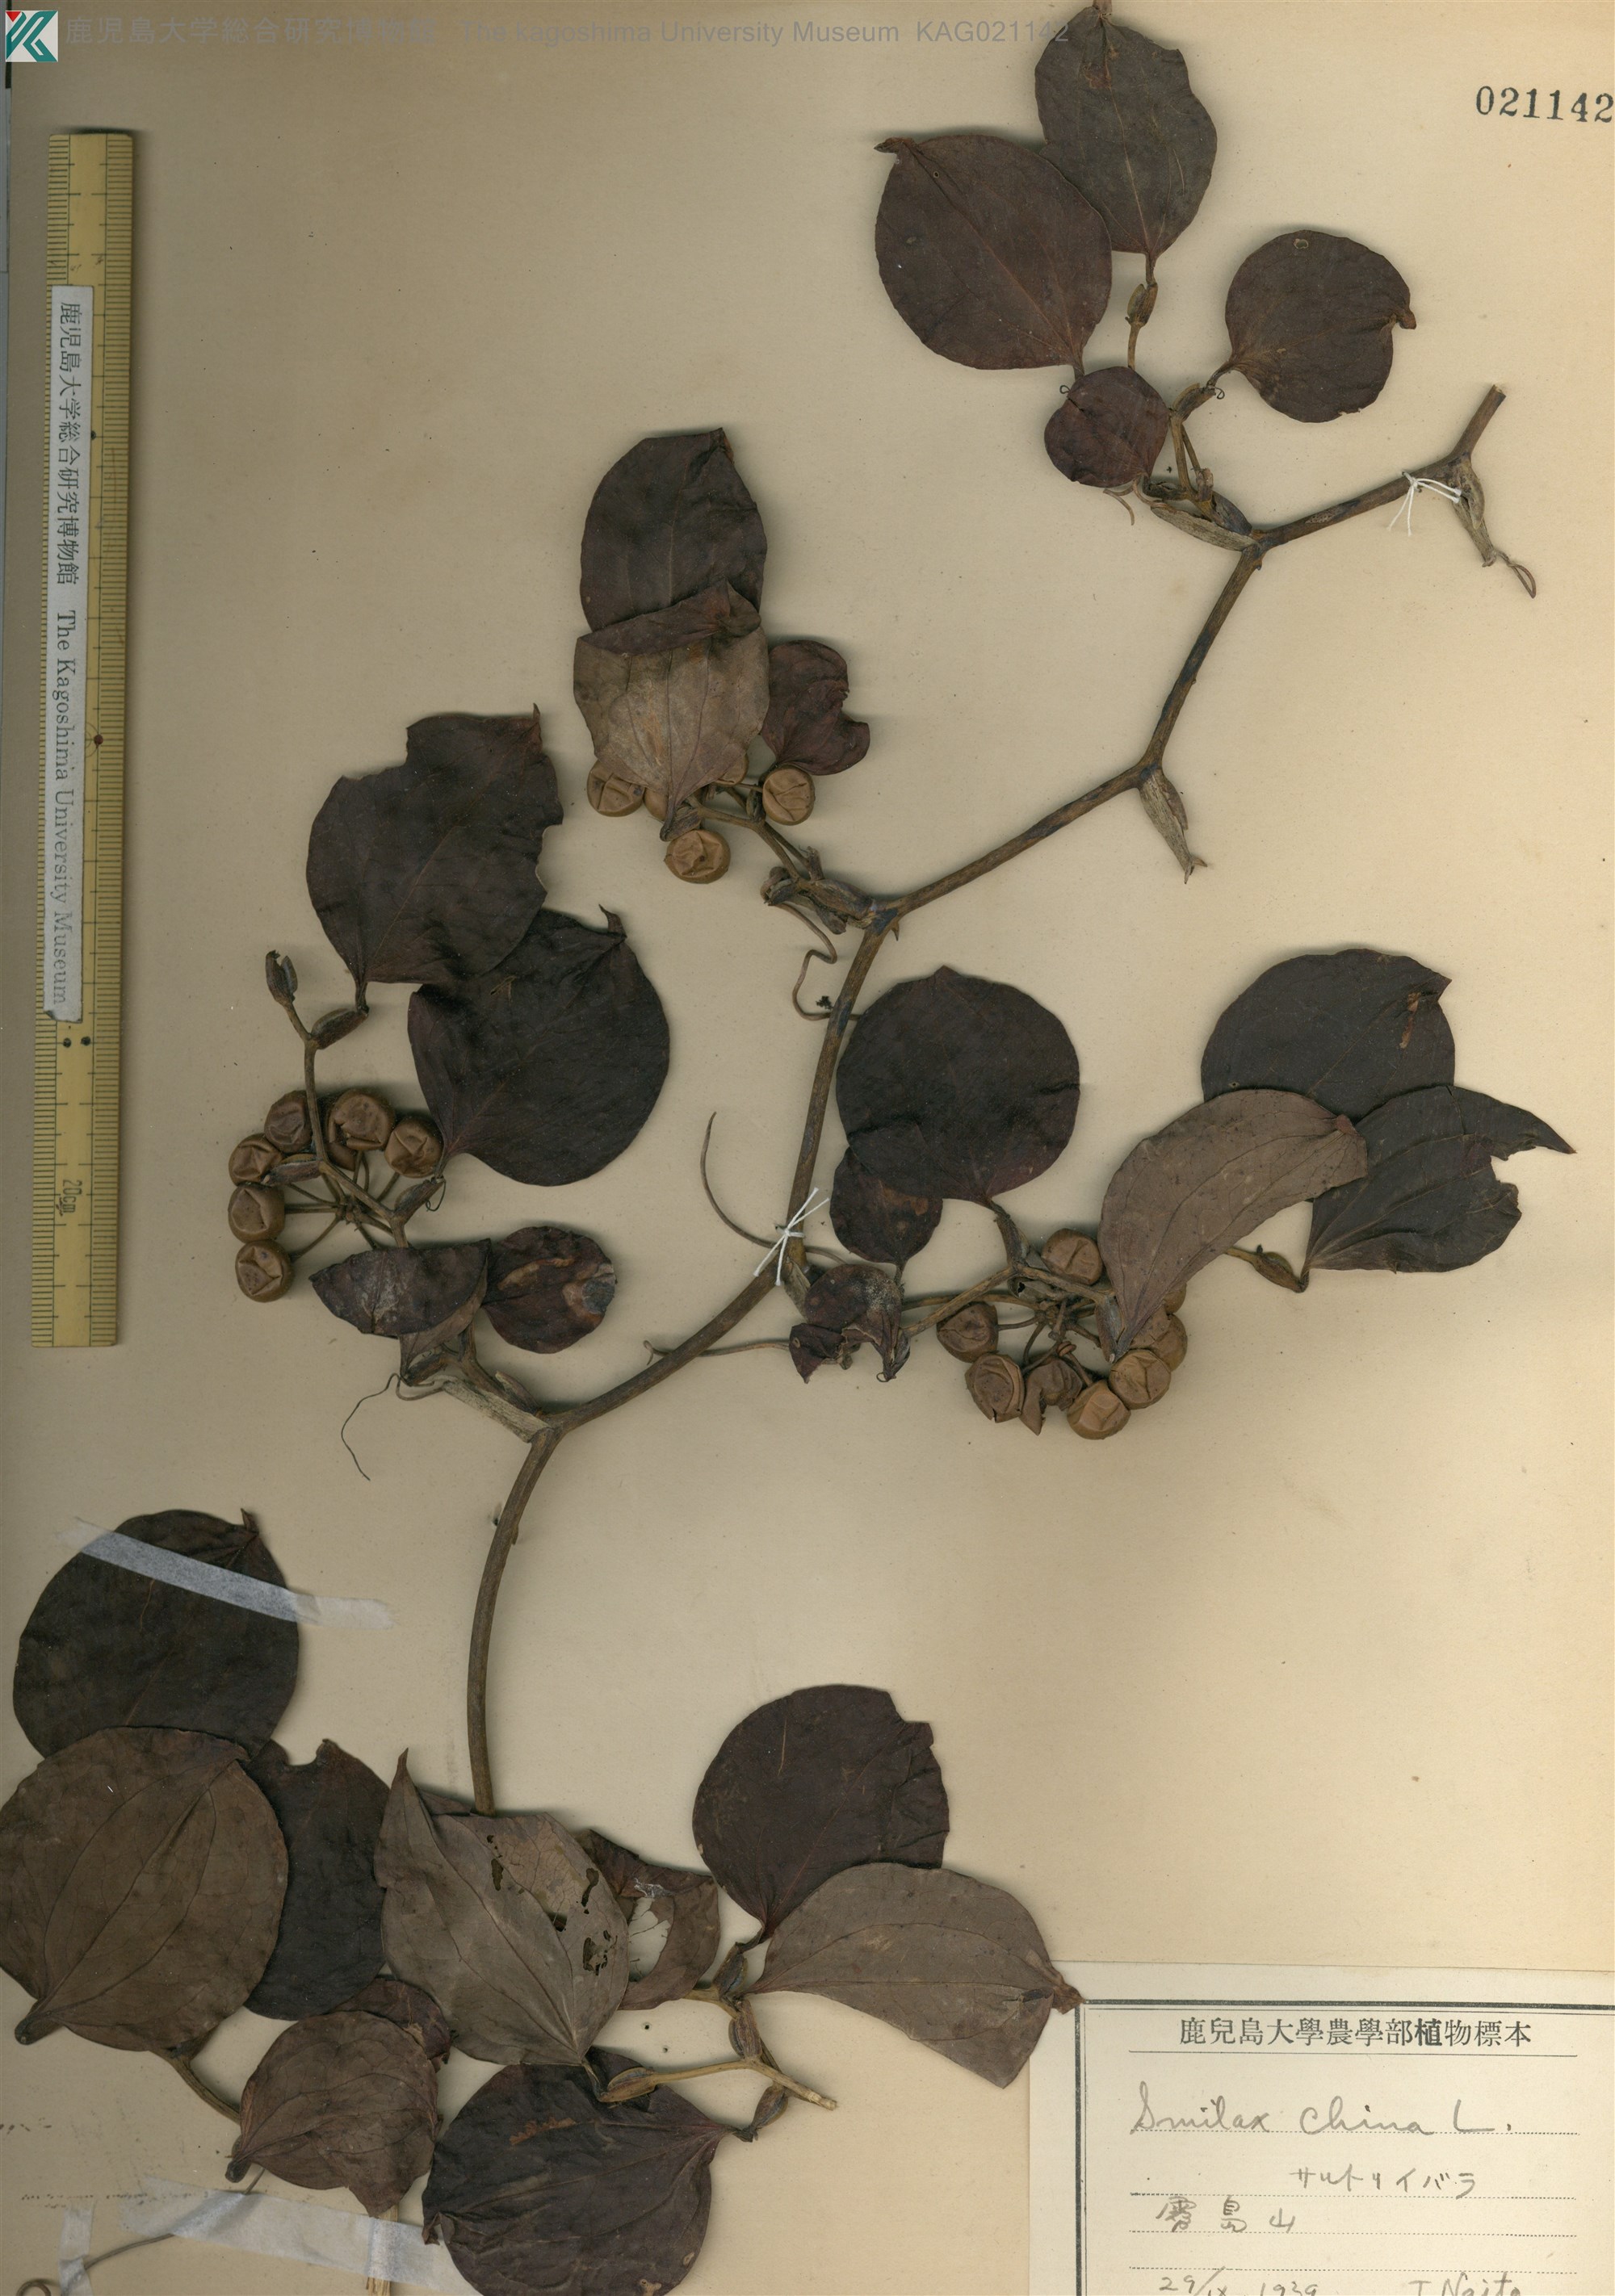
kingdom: Plantae
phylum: Tracheophyta
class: Liliopsida
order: Liliales
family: Smilacaceae
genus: Smilax
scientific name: Smilax china
